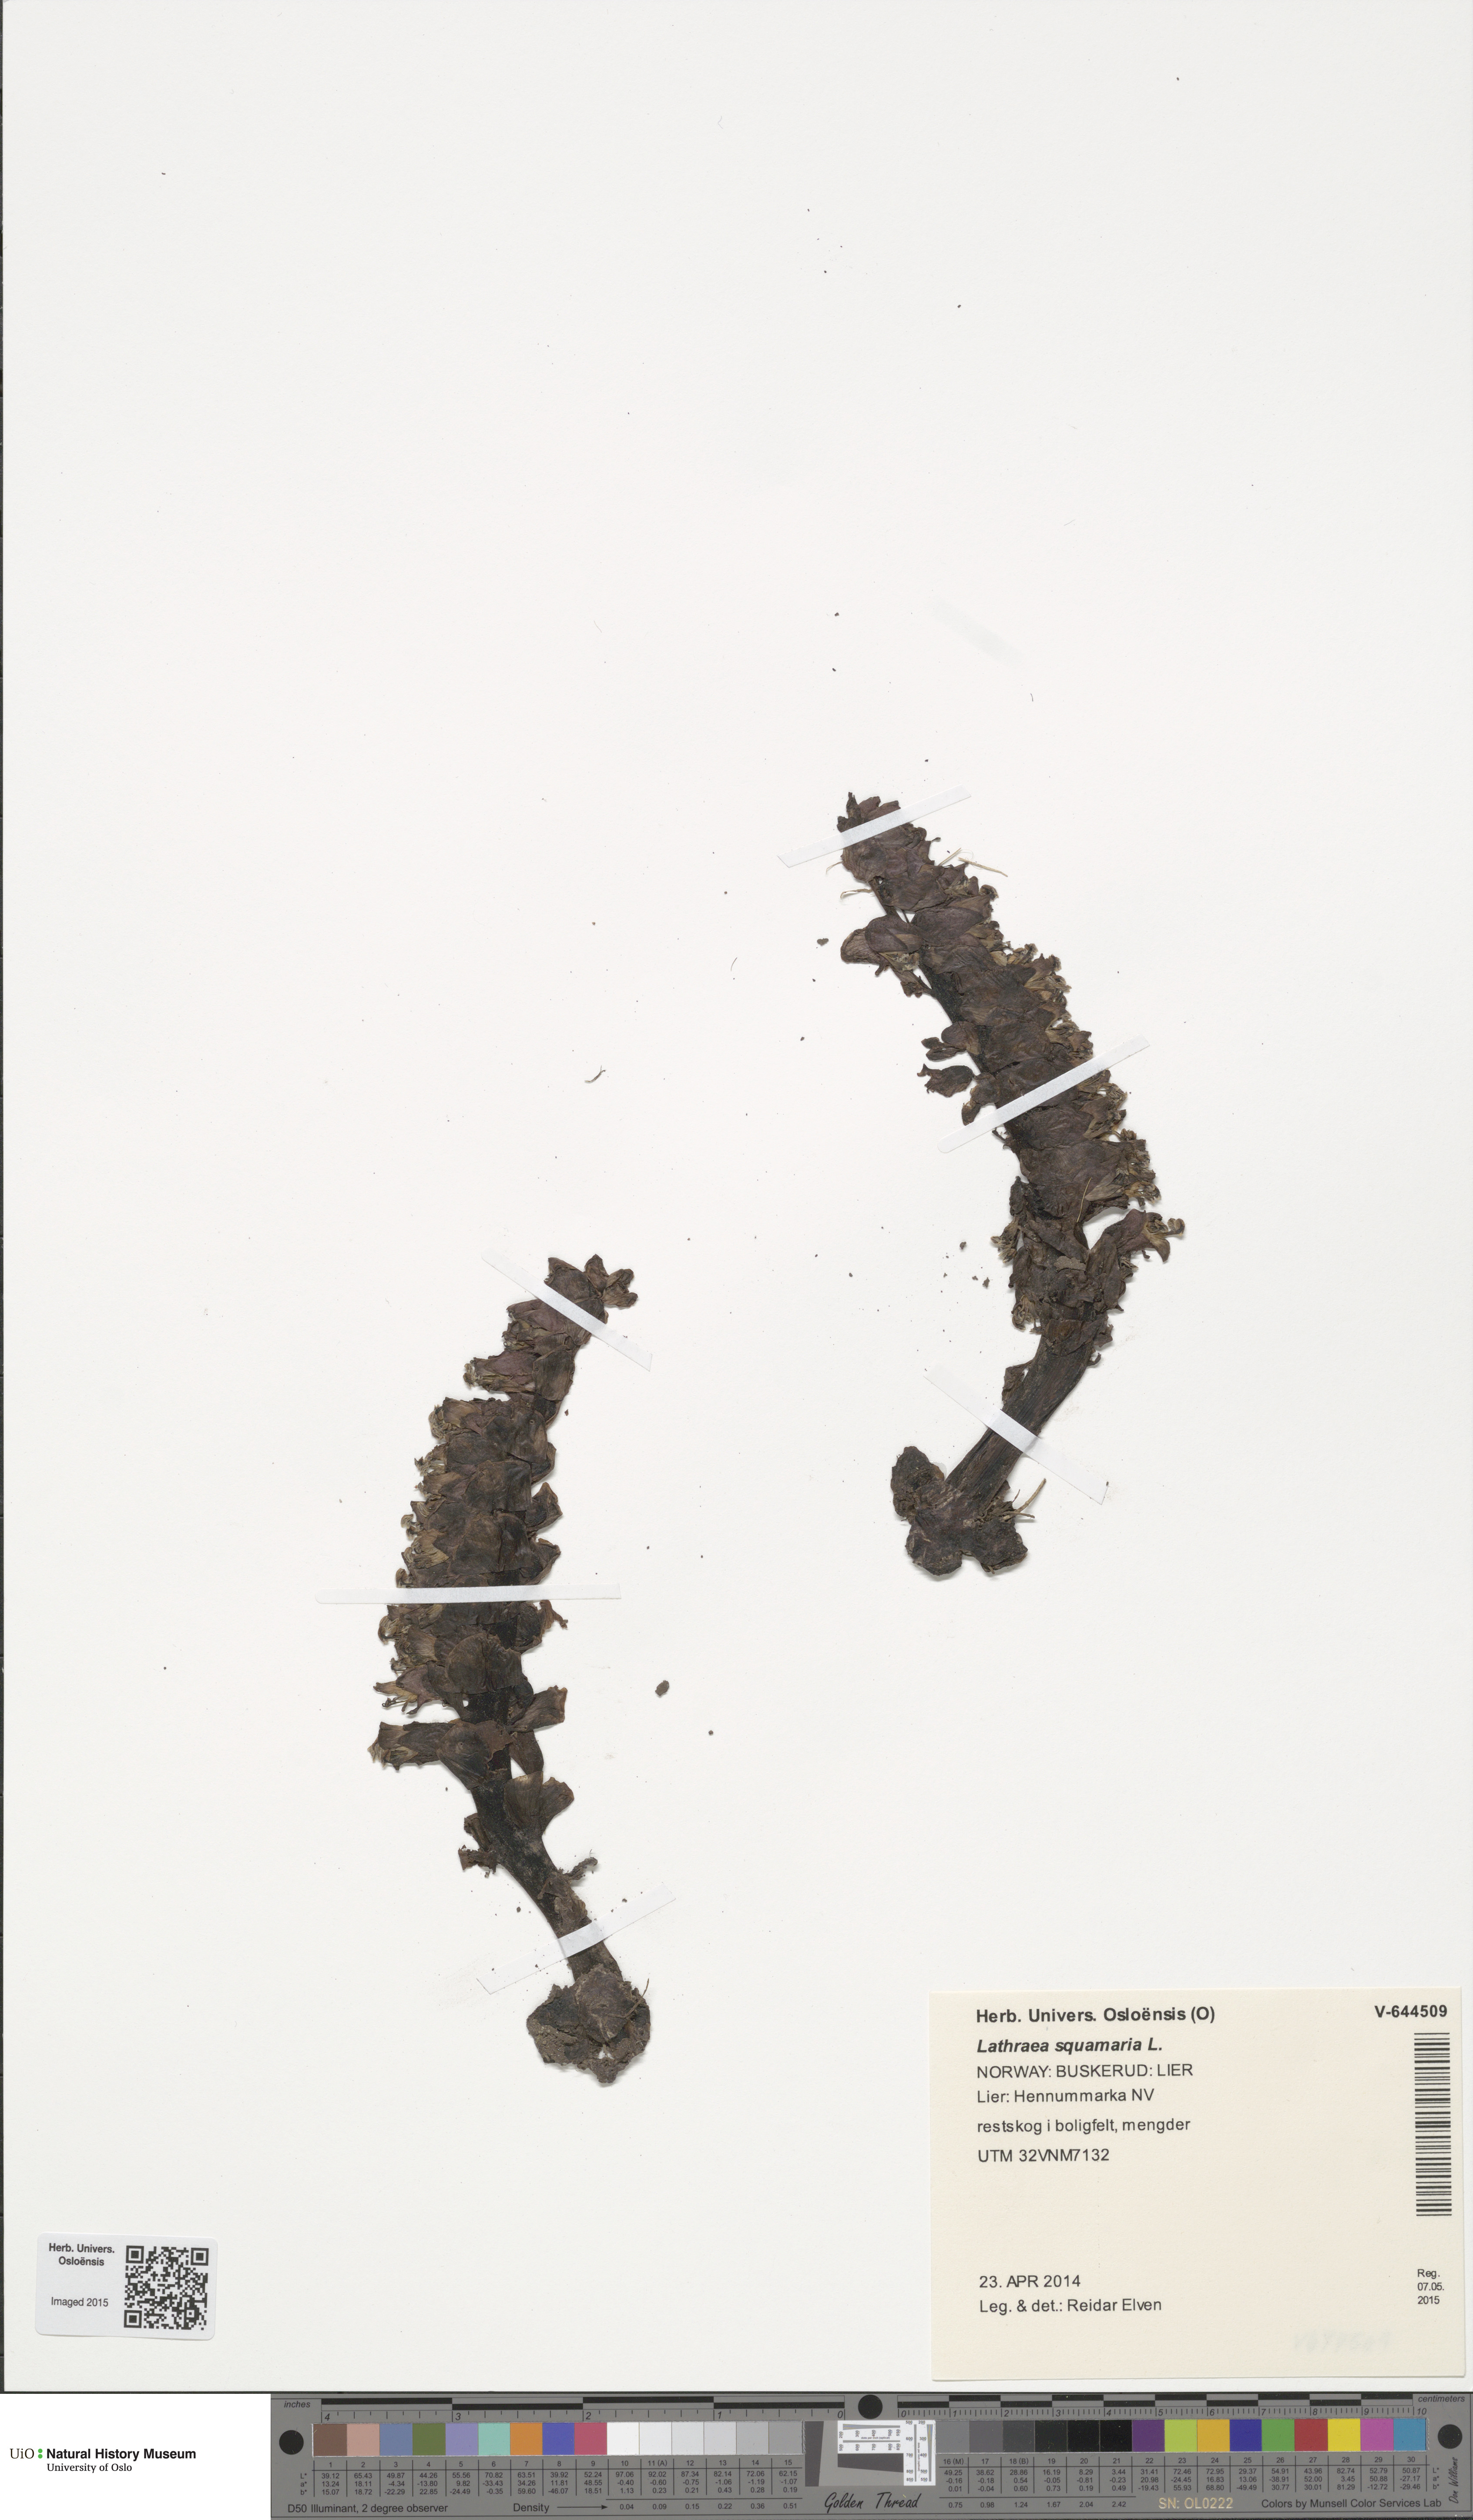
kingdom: Plantae
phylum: Tracheophyta
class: Magnoliopsida
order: Lamiales
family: Orobanchaceae
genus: Lathraea
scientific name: Lathraea squamaria
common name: Toothwort
